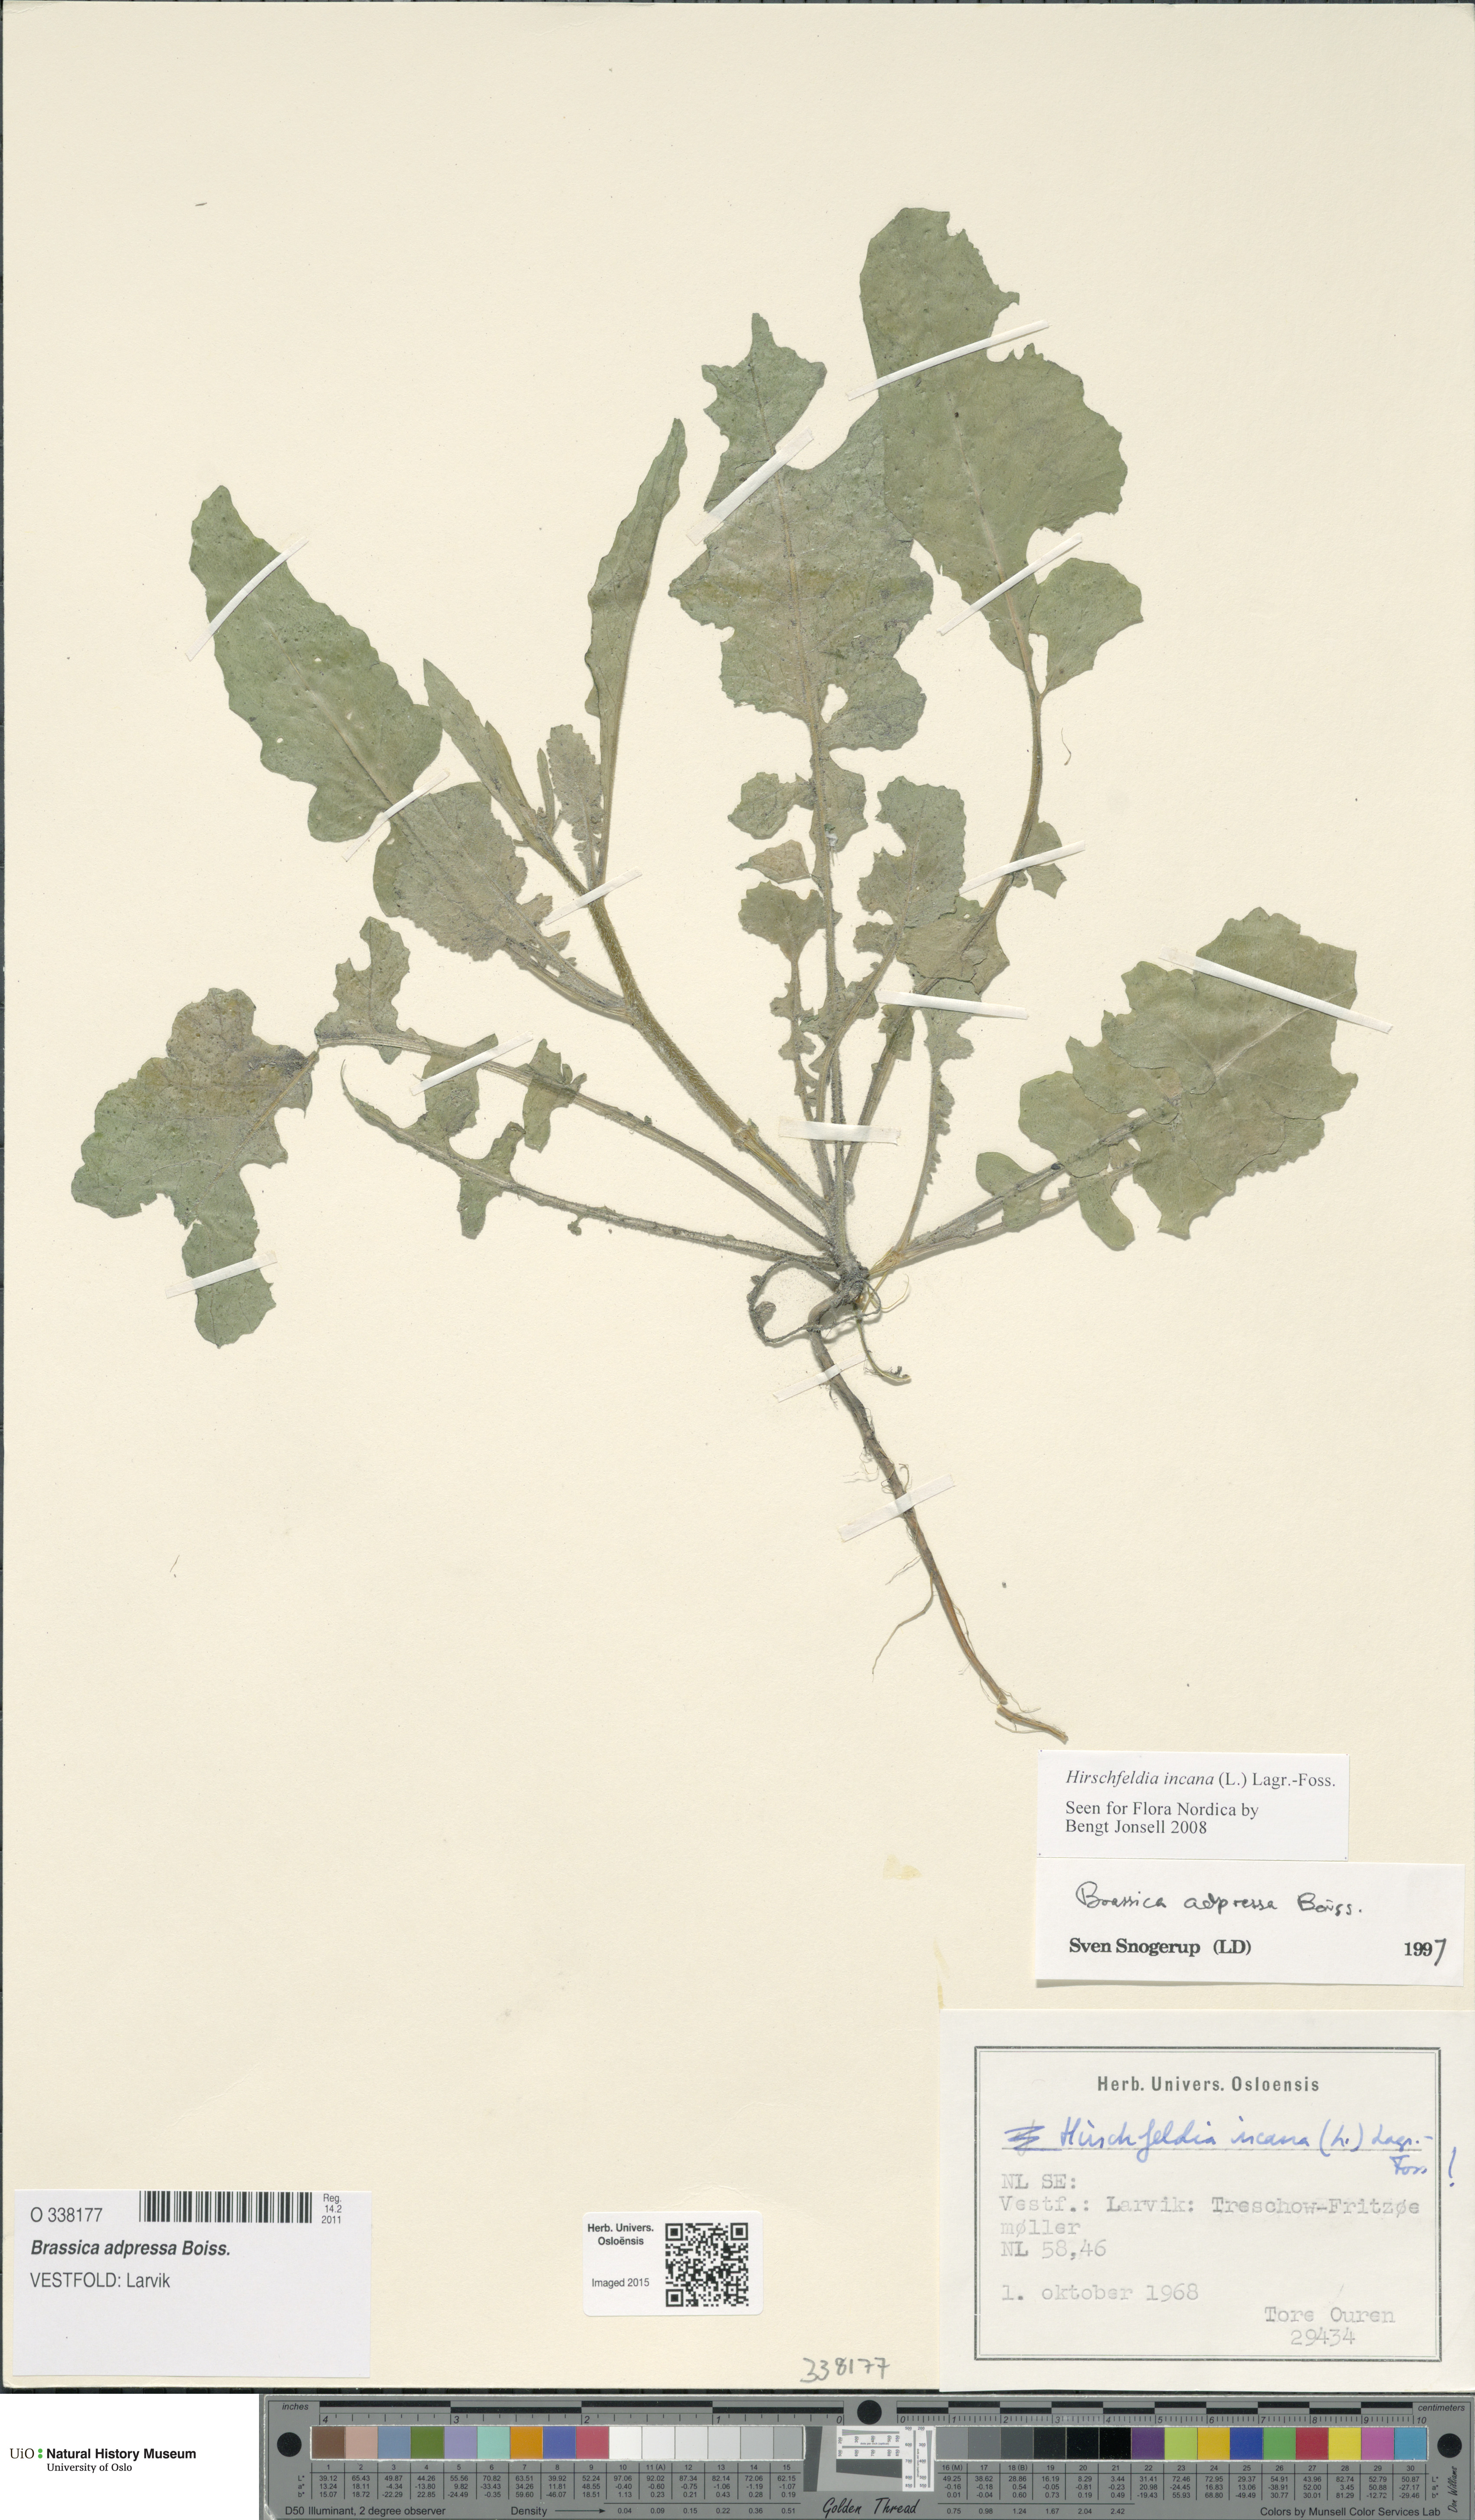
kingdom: Plantae
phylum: Tracheophyta
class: Magnoliopsida
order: Brassicales
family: Brassicaceae
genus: Hirschfeldia
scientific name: Hirschfeldia incana
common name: Hoary mustard
